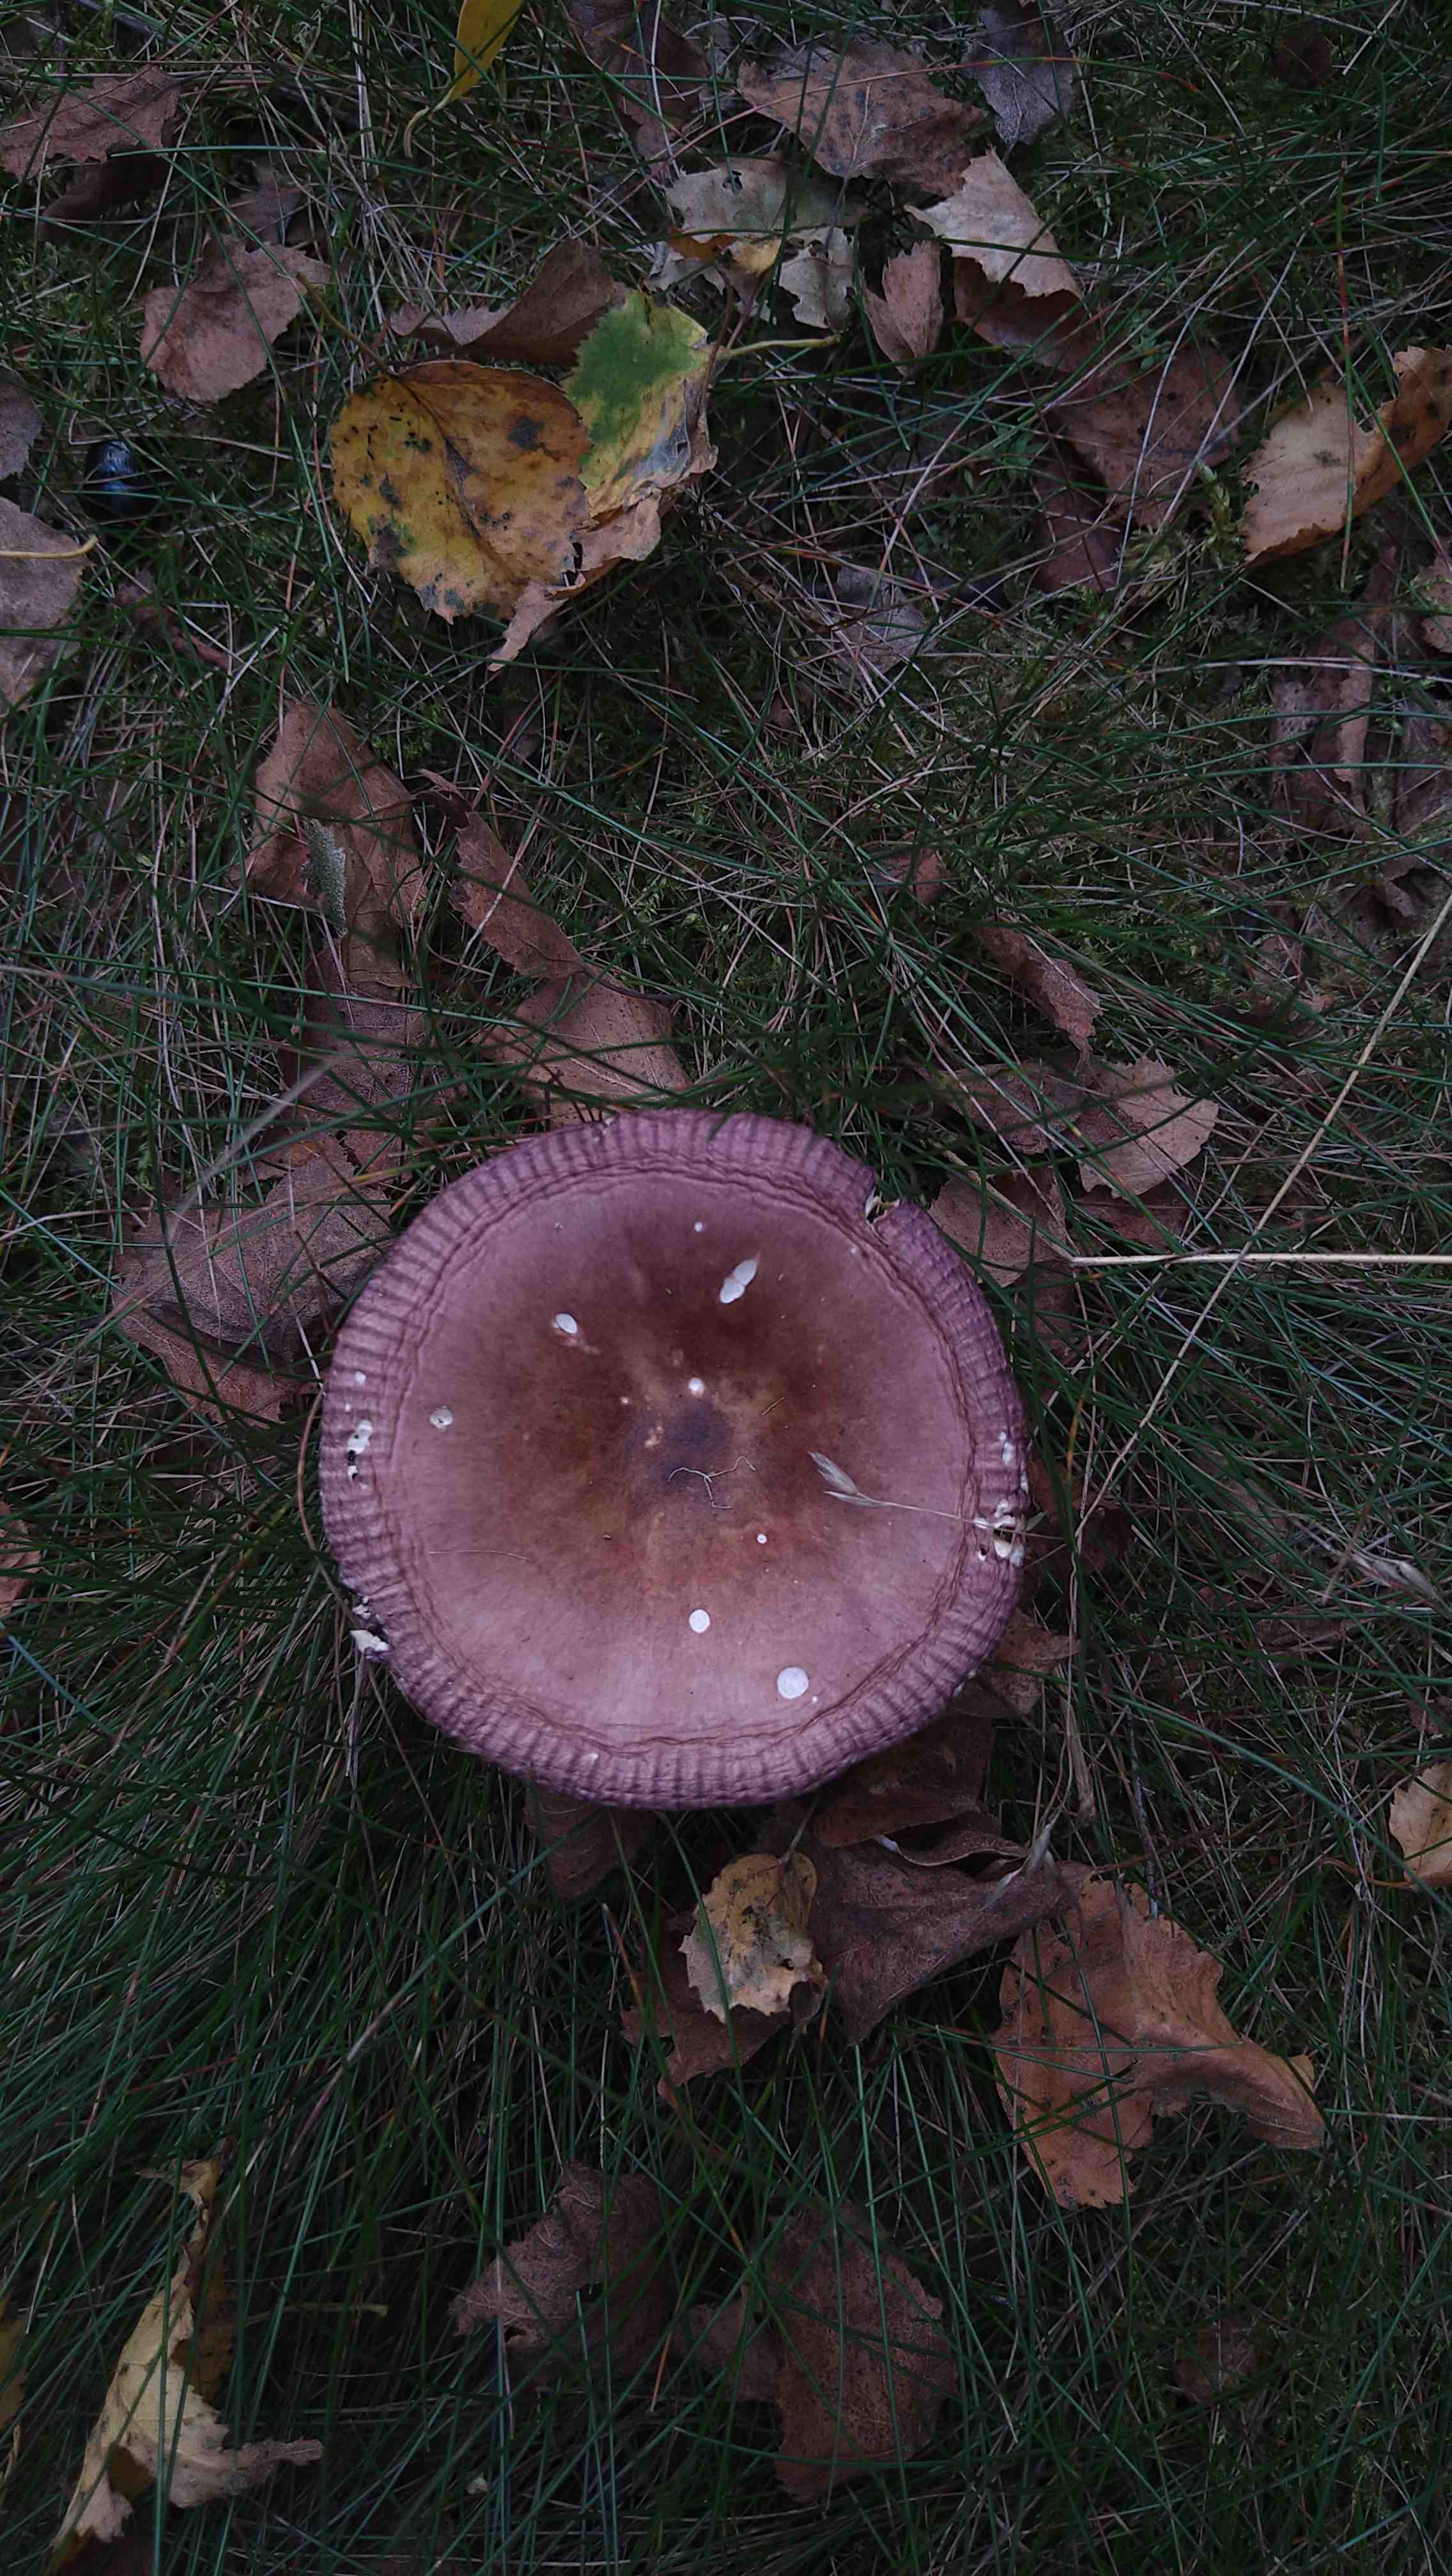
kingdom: Fungi
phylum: Basidiomycota
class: Agaricomycetes
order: Russulales
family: Russulaceae
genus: Russula
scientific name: Russula
